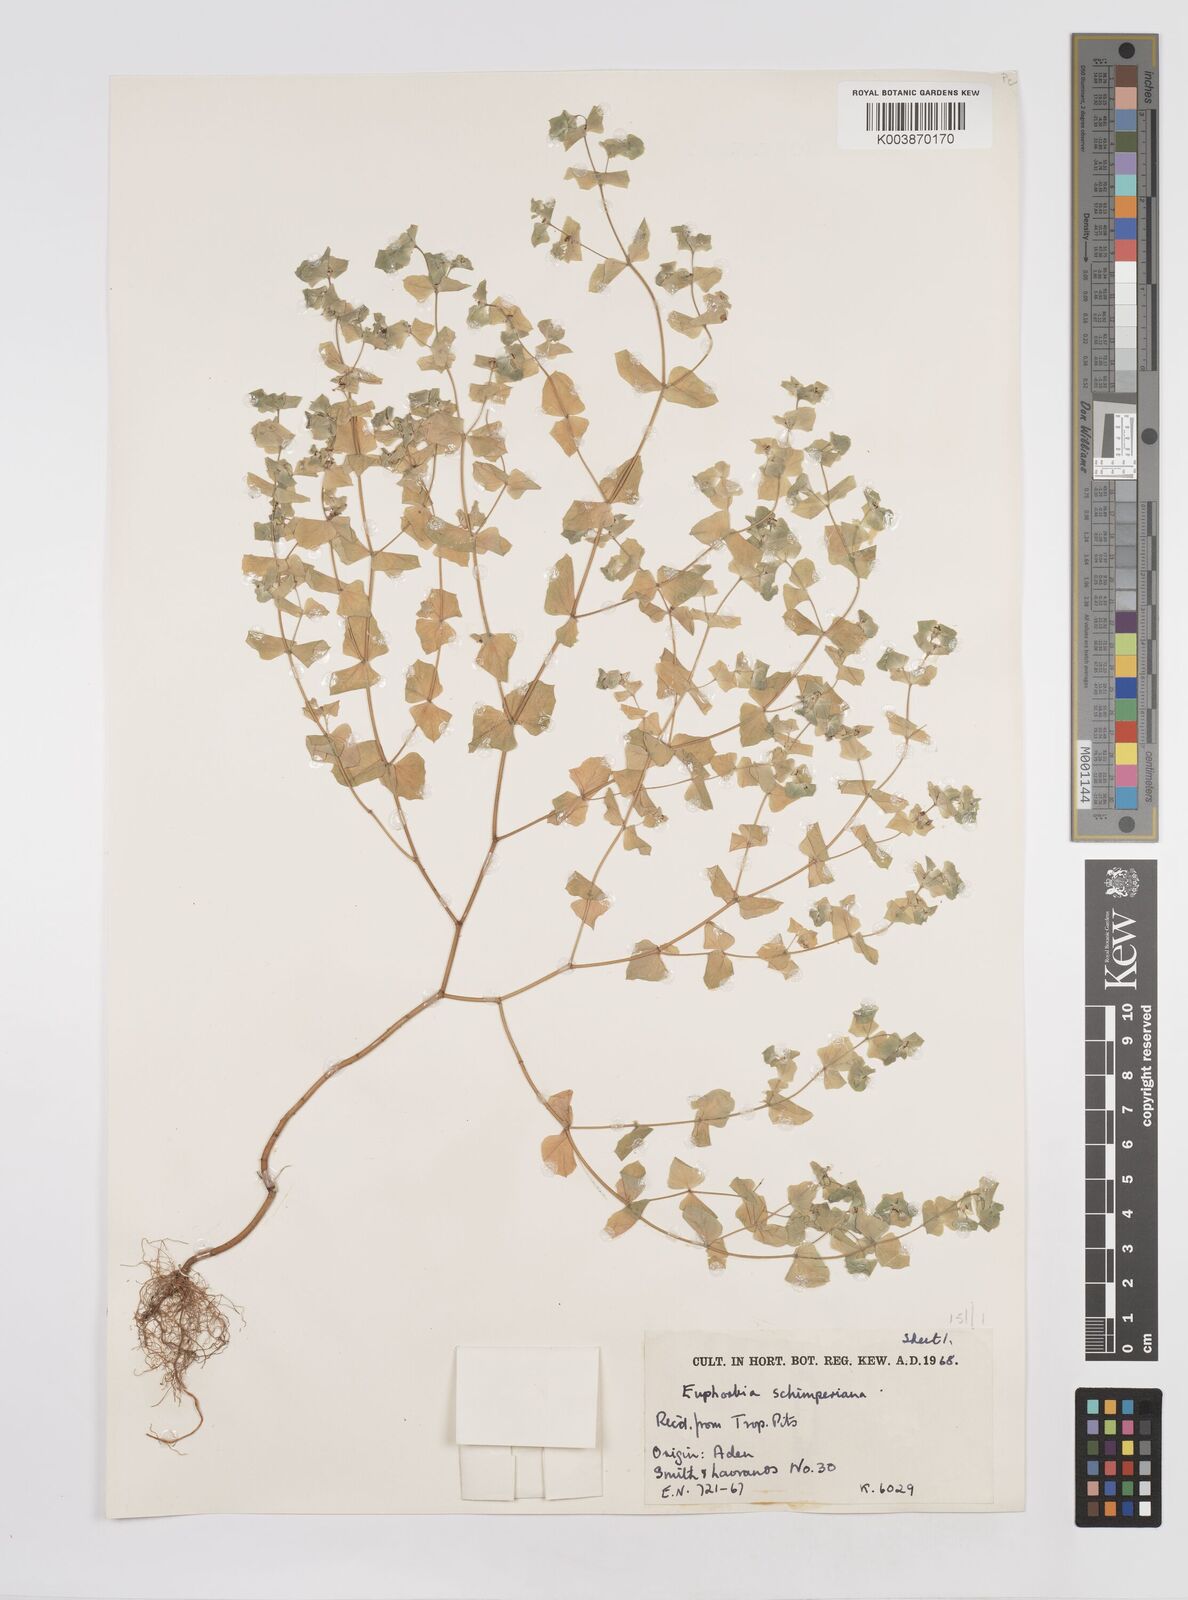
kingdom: Plantae
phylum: Tracheophyta
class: Magnoliopsida
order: Malpighiales
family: Euphorbiaceae
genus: Euphorbia
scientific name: Euphorbia schimperiana
